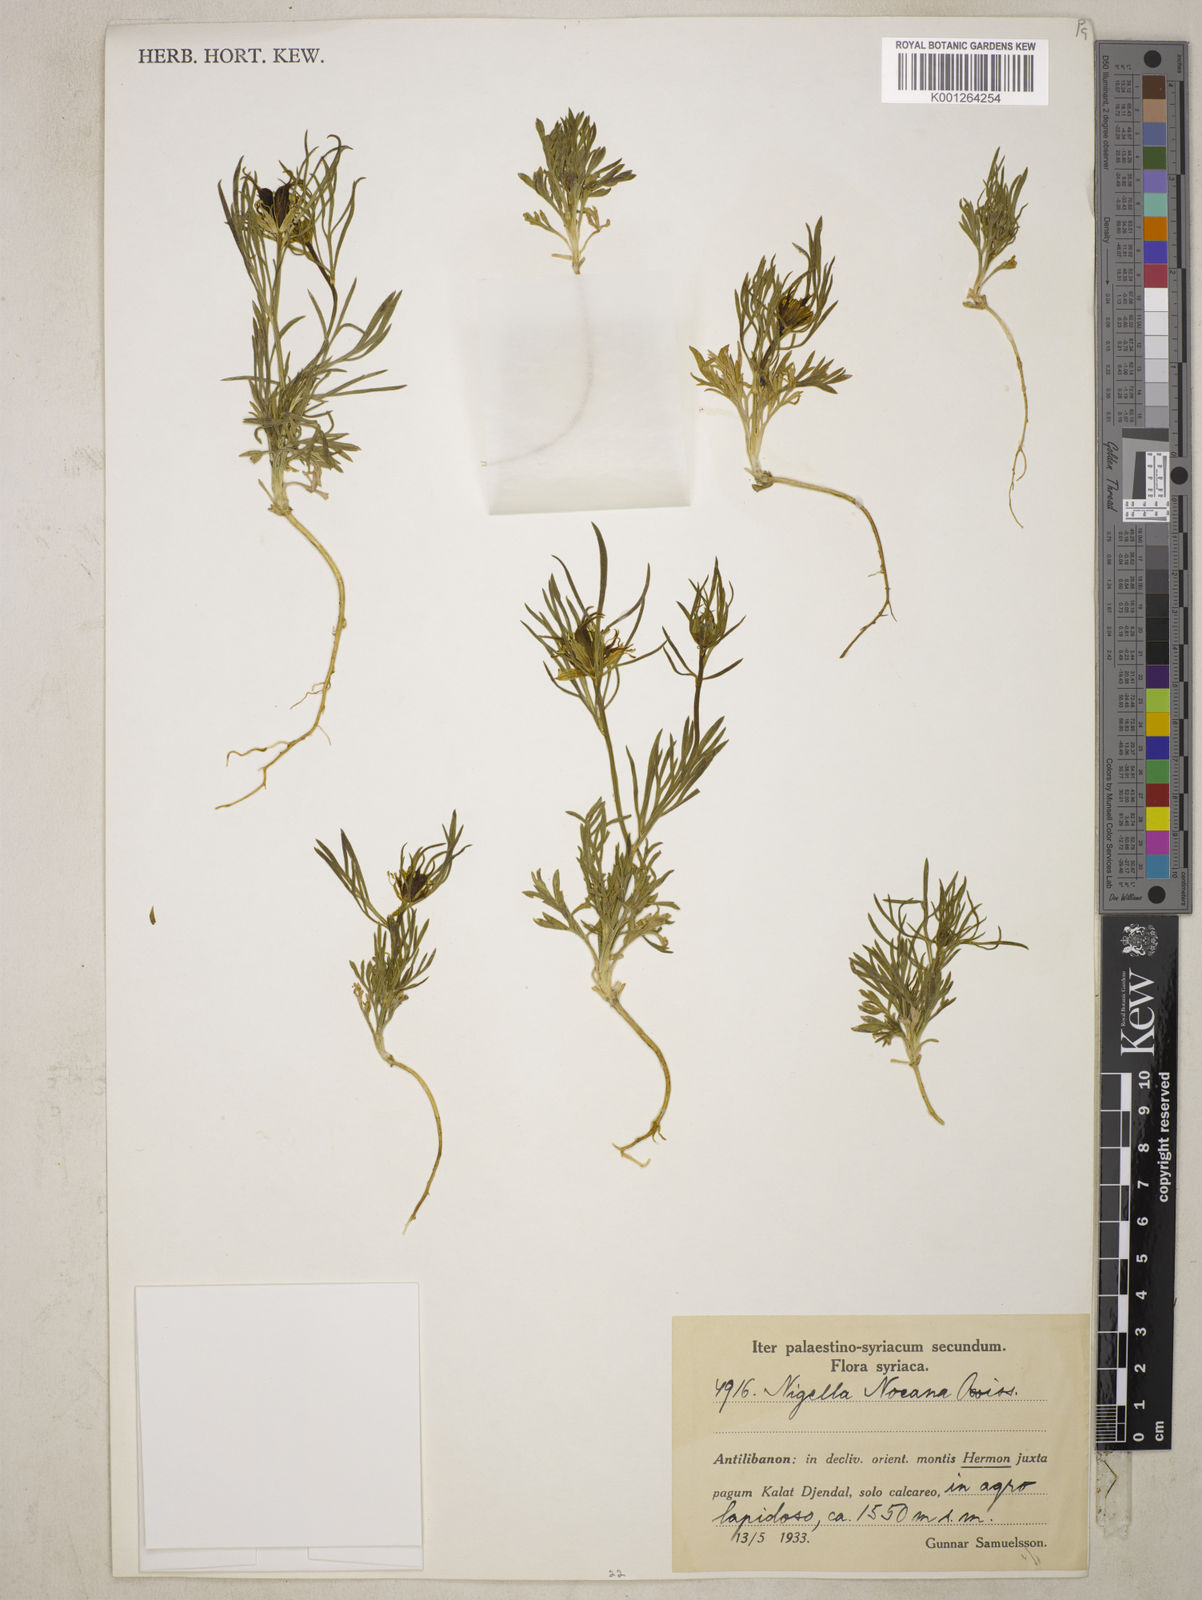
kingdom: Plantae
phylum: Tracheophyta
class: Magnoliopsida
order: Ranunculales
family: Ranunculaceae
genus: Nigella
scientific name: Nigella oxypetala
